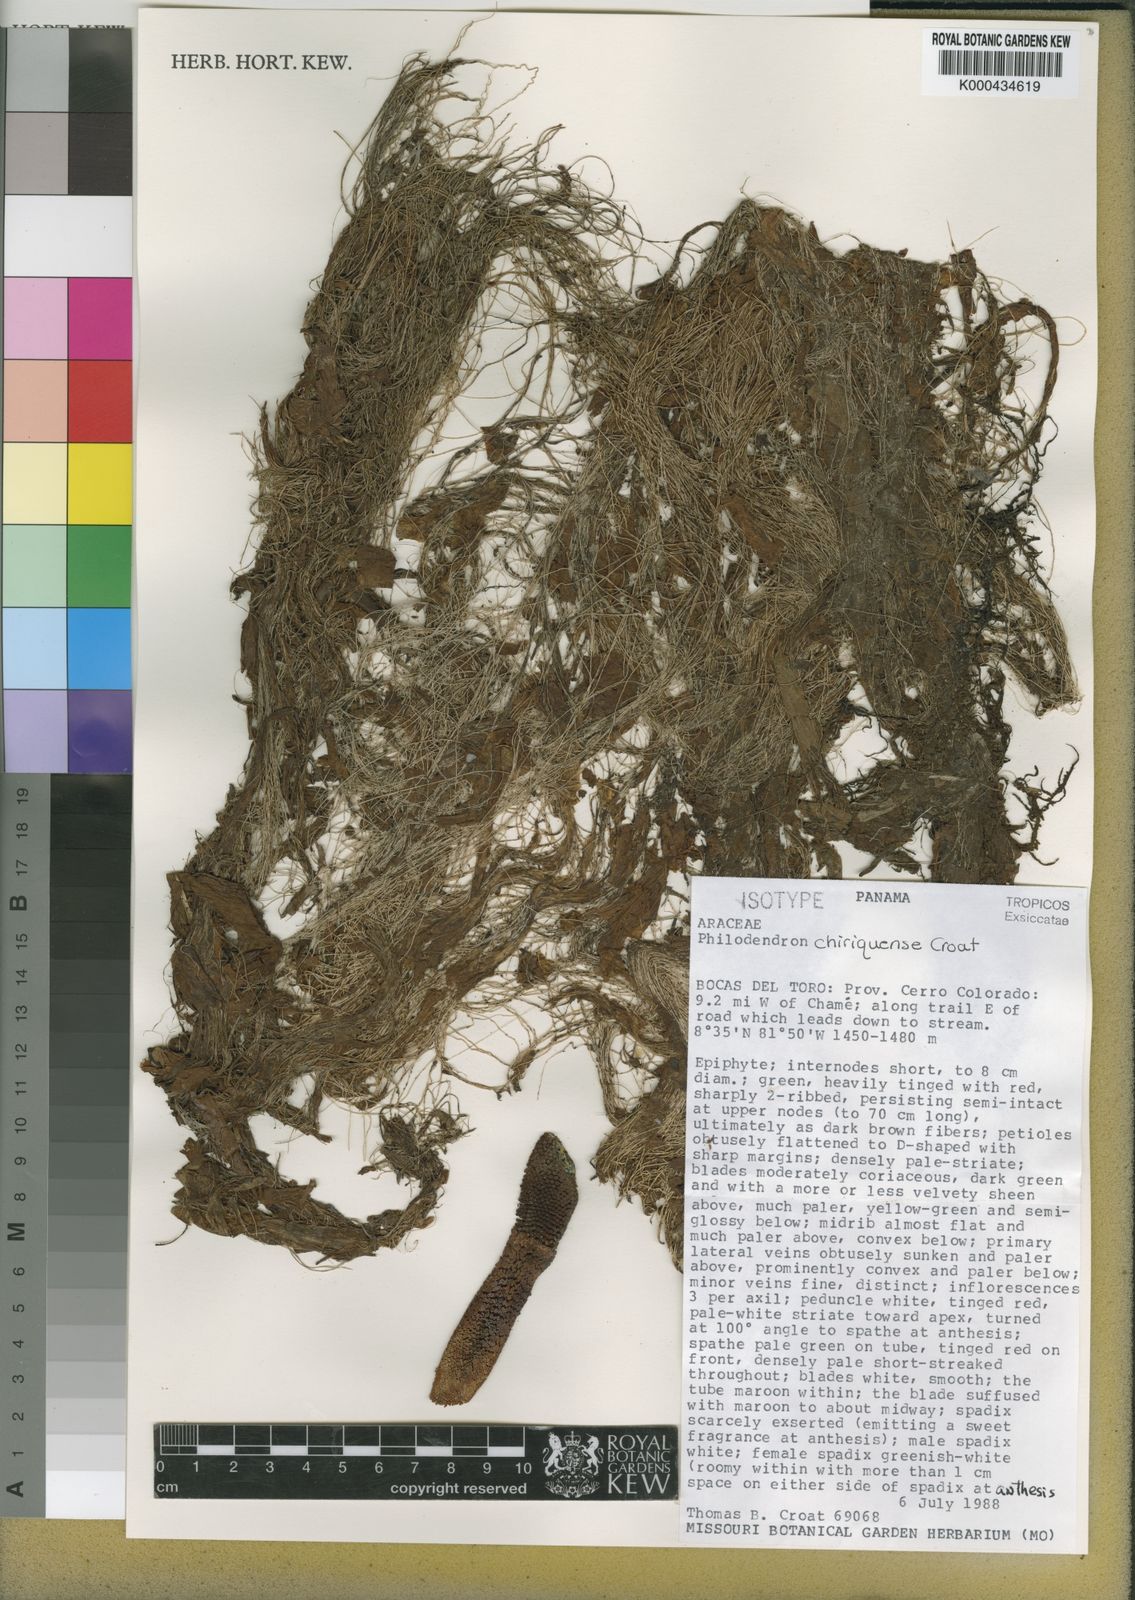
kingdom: Plantae
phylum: Tracheophyta
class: Liliopsida
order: Alismatales
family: Araceae
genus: Philodendron
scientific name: Philodendron chiriquense
